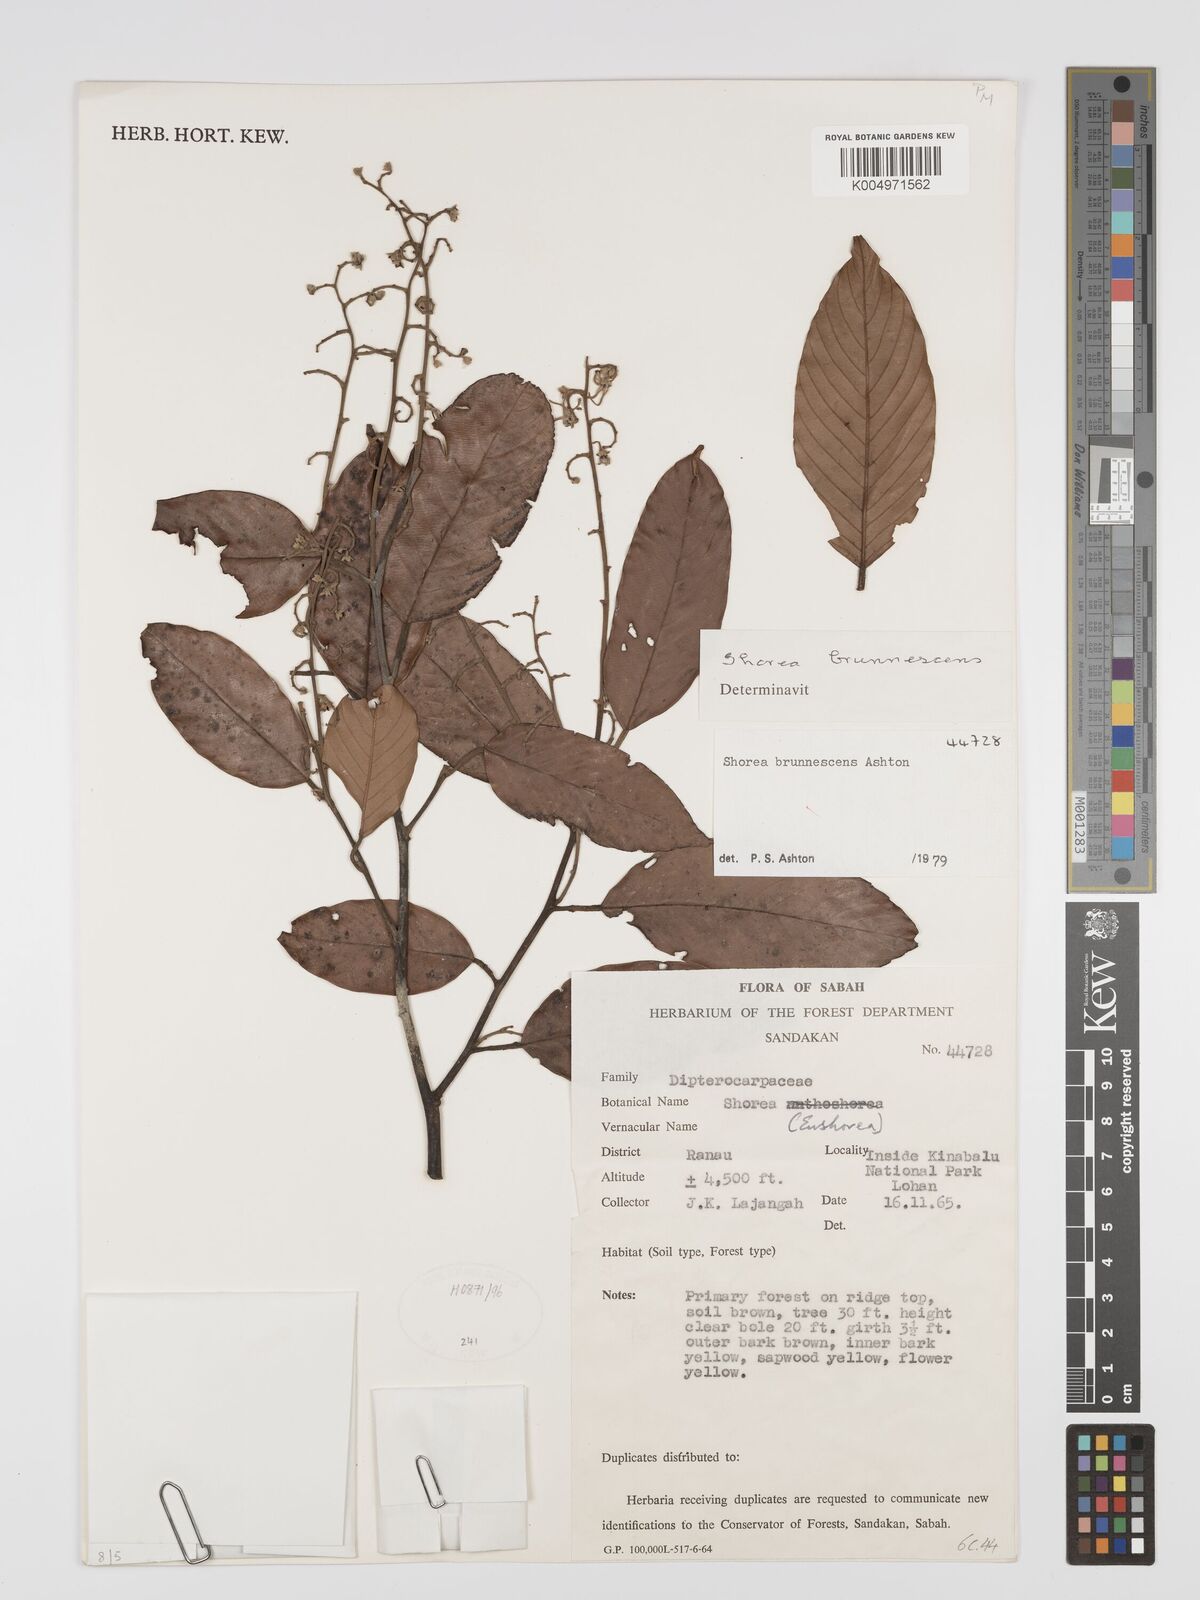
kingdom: Plantae
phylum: Tracheophyta
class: Magnoliopsida
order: Malvales
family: Dipterocarpaceae
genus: Shorea
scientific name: Shorea brunnescens
